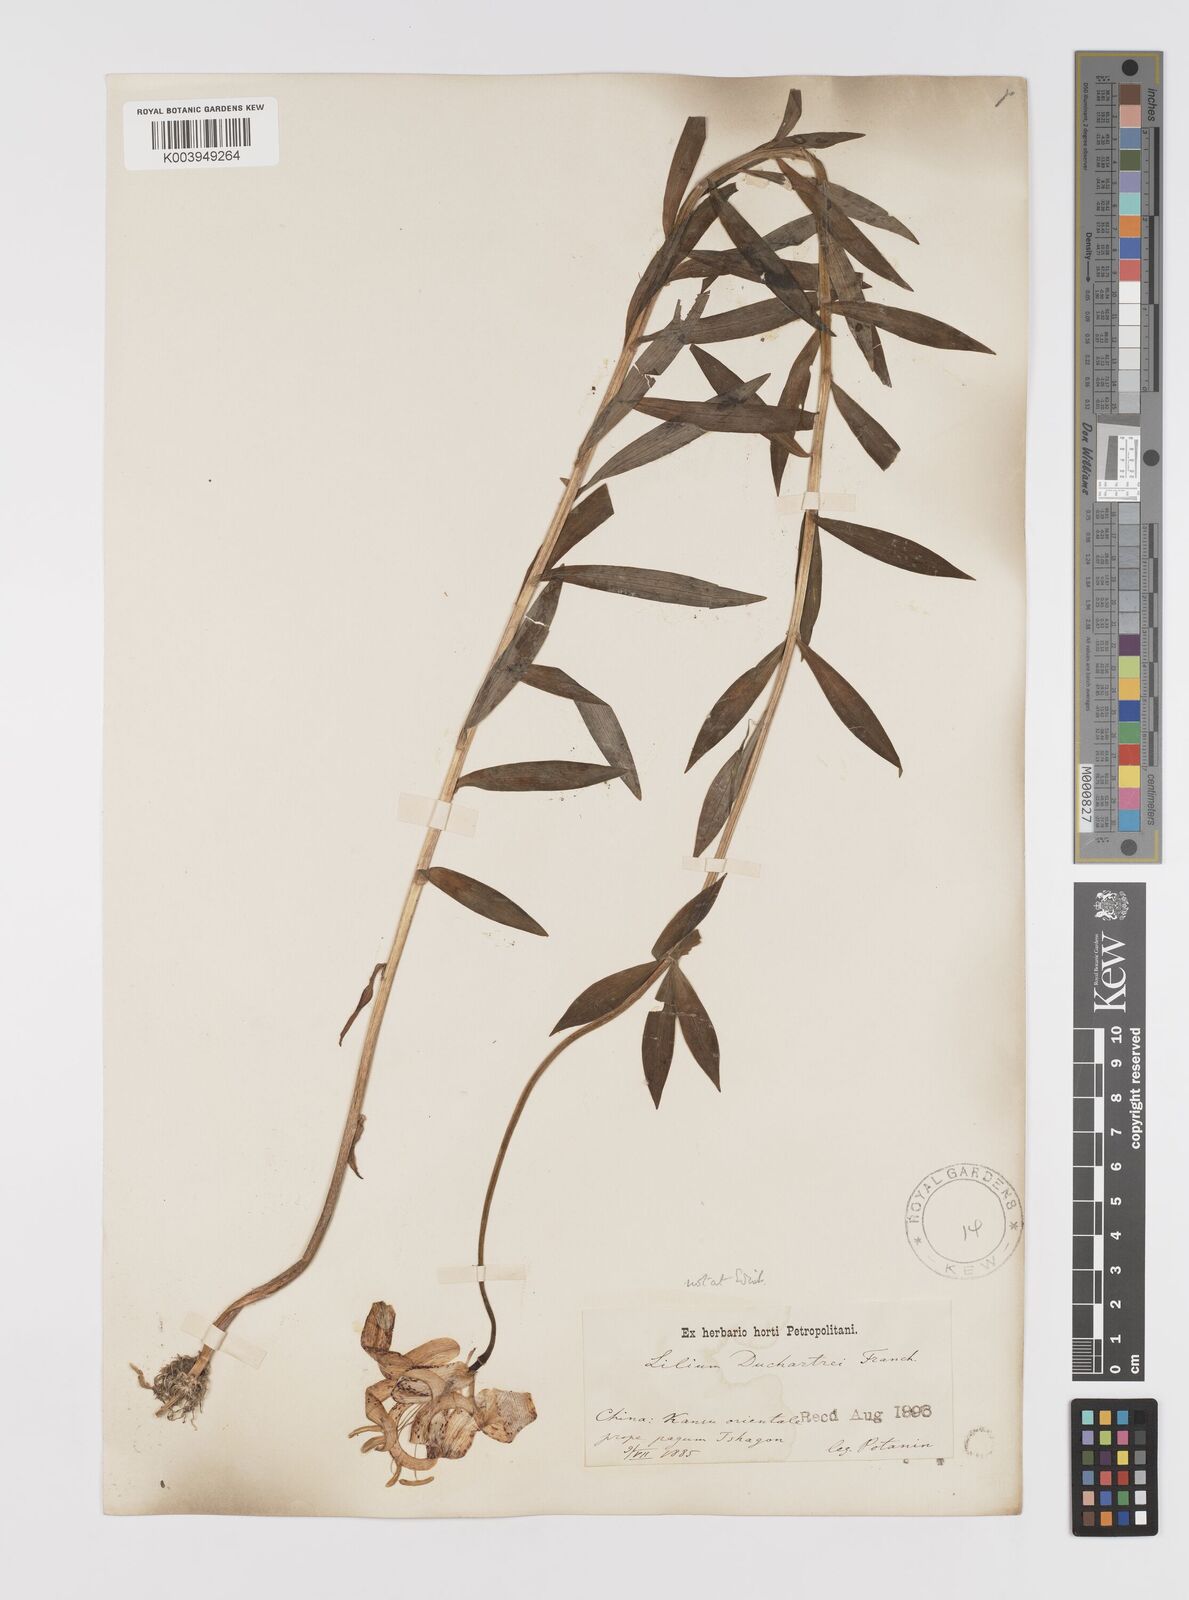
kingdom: Plantae
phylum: Tracheophyta
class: Liliopsida
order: Liliales
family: Liliaceae
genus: Lilium
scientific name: Lilium duchartrei
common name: Duchartre lily
